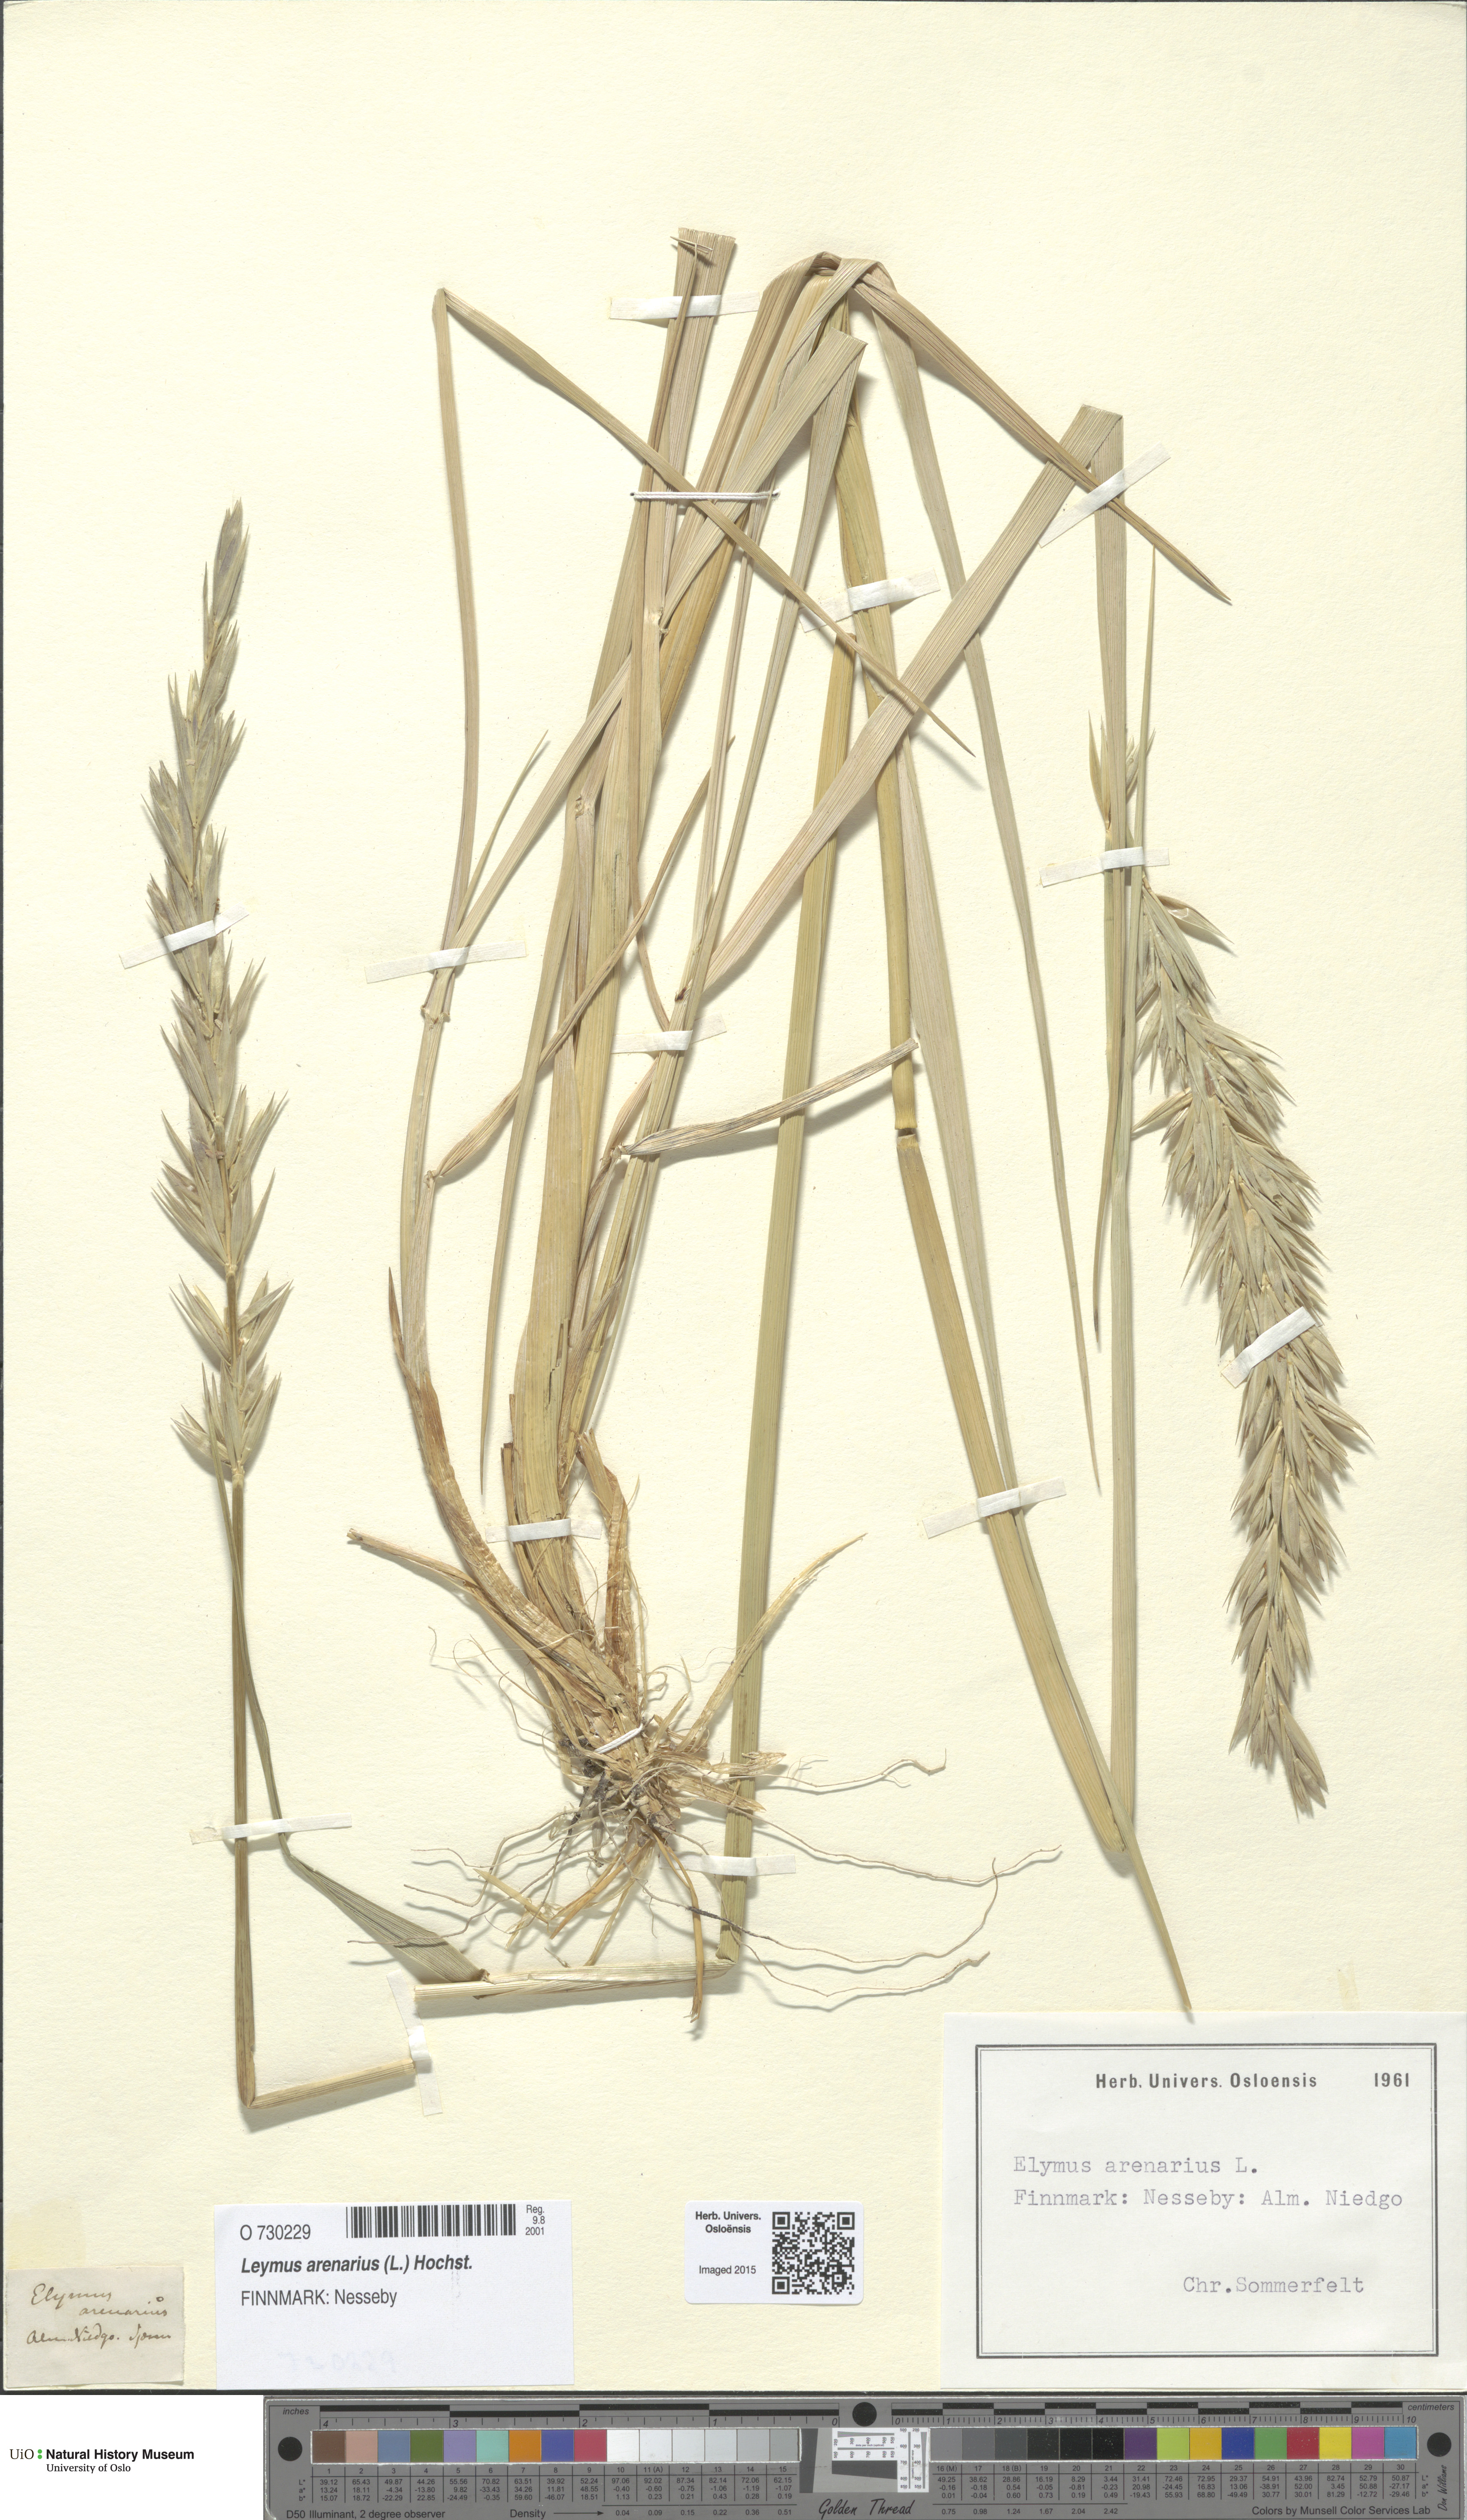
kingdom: Plantae
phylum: Tracheophyta
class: Liliopsida
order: Poales
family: Poaceae
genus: Leymus
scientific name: Leymus arenarius
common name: Lyme-grass
